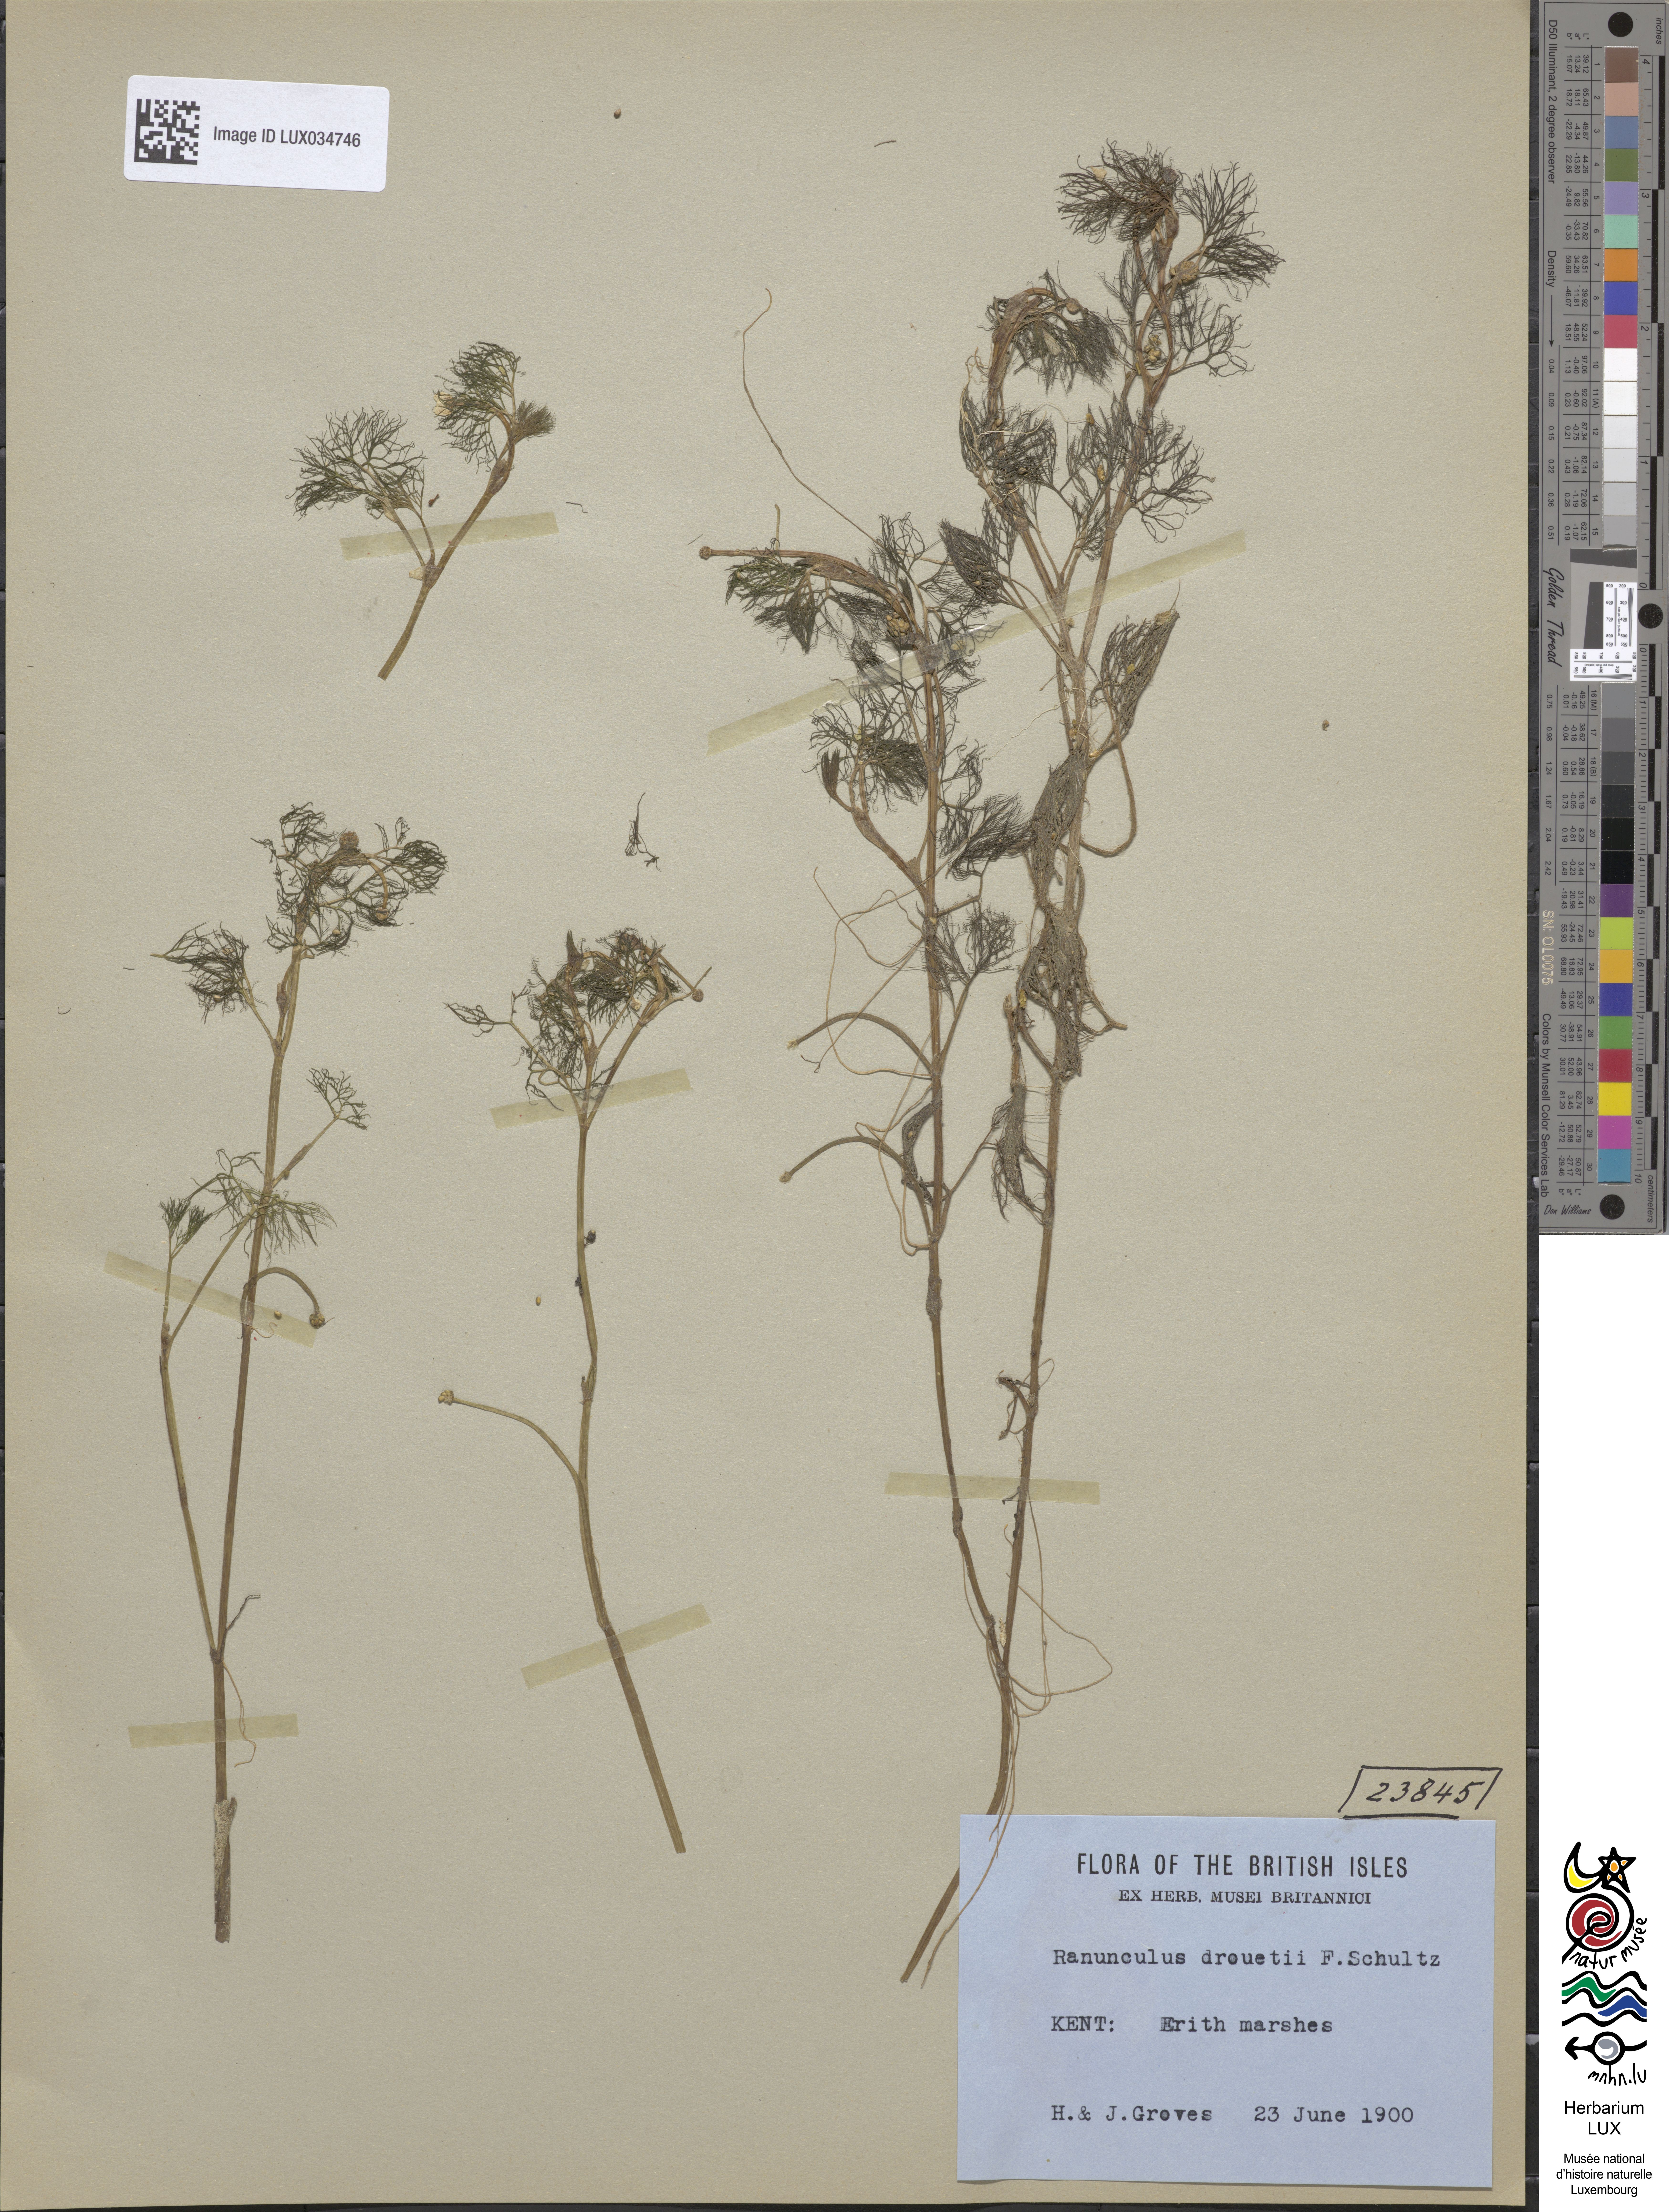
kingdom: Plantae
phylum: Tracheophyta
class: Magnoliopsida
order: Ranunculales
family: Ranunculaceae
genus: Ranunculus
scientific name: Ranunculus trichophyllus
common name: Thread-leaved water-crowfoot
